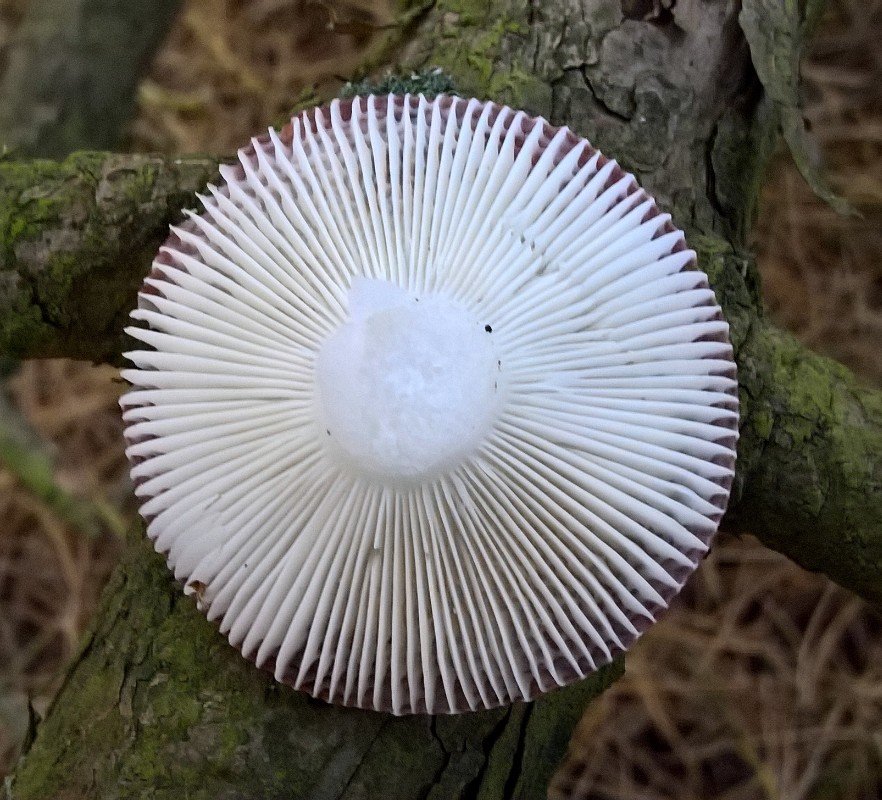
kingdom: Fungi
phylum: Basidiomycota
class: Agaricomycetes
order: Russulales
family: Russulaceae
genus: Russula
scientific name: Russula
